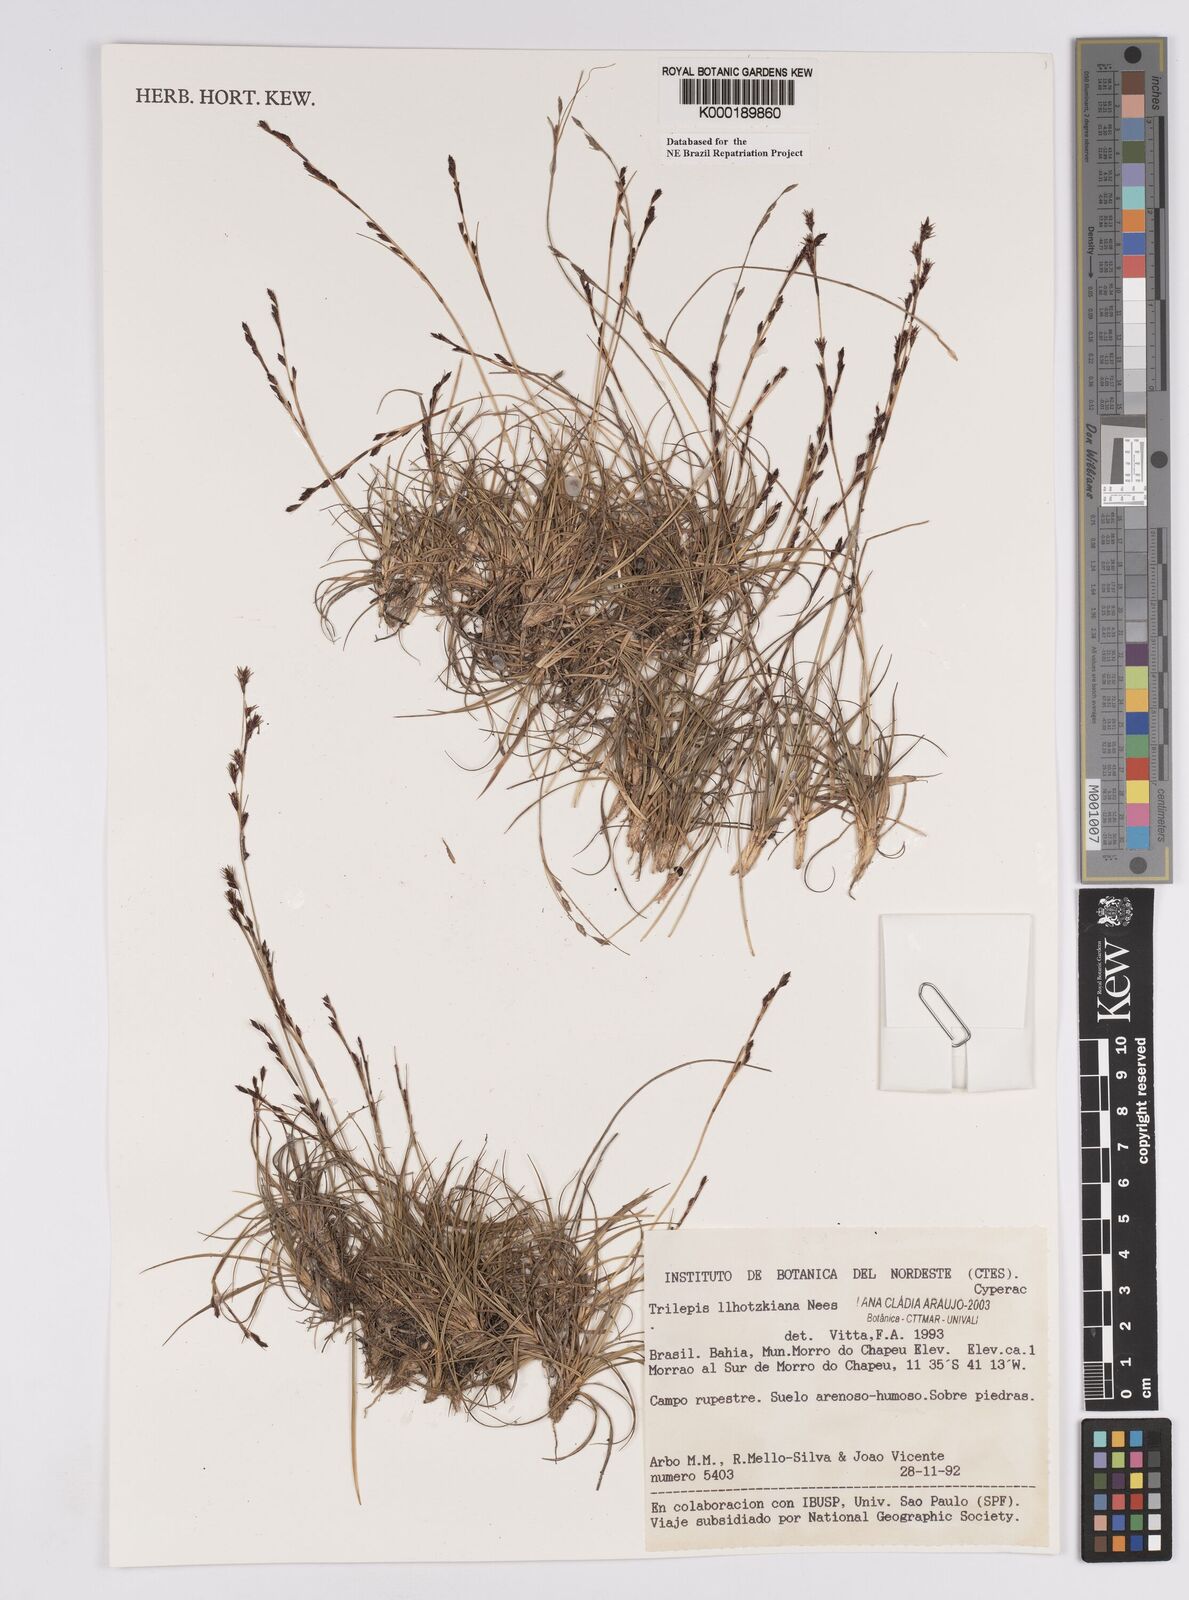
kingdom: Plantae
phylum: Tracheophyta
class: Liliopsida
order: Poales
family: Cyperaceae
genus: Trilepis
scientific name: Trilepis lhotzkiana
